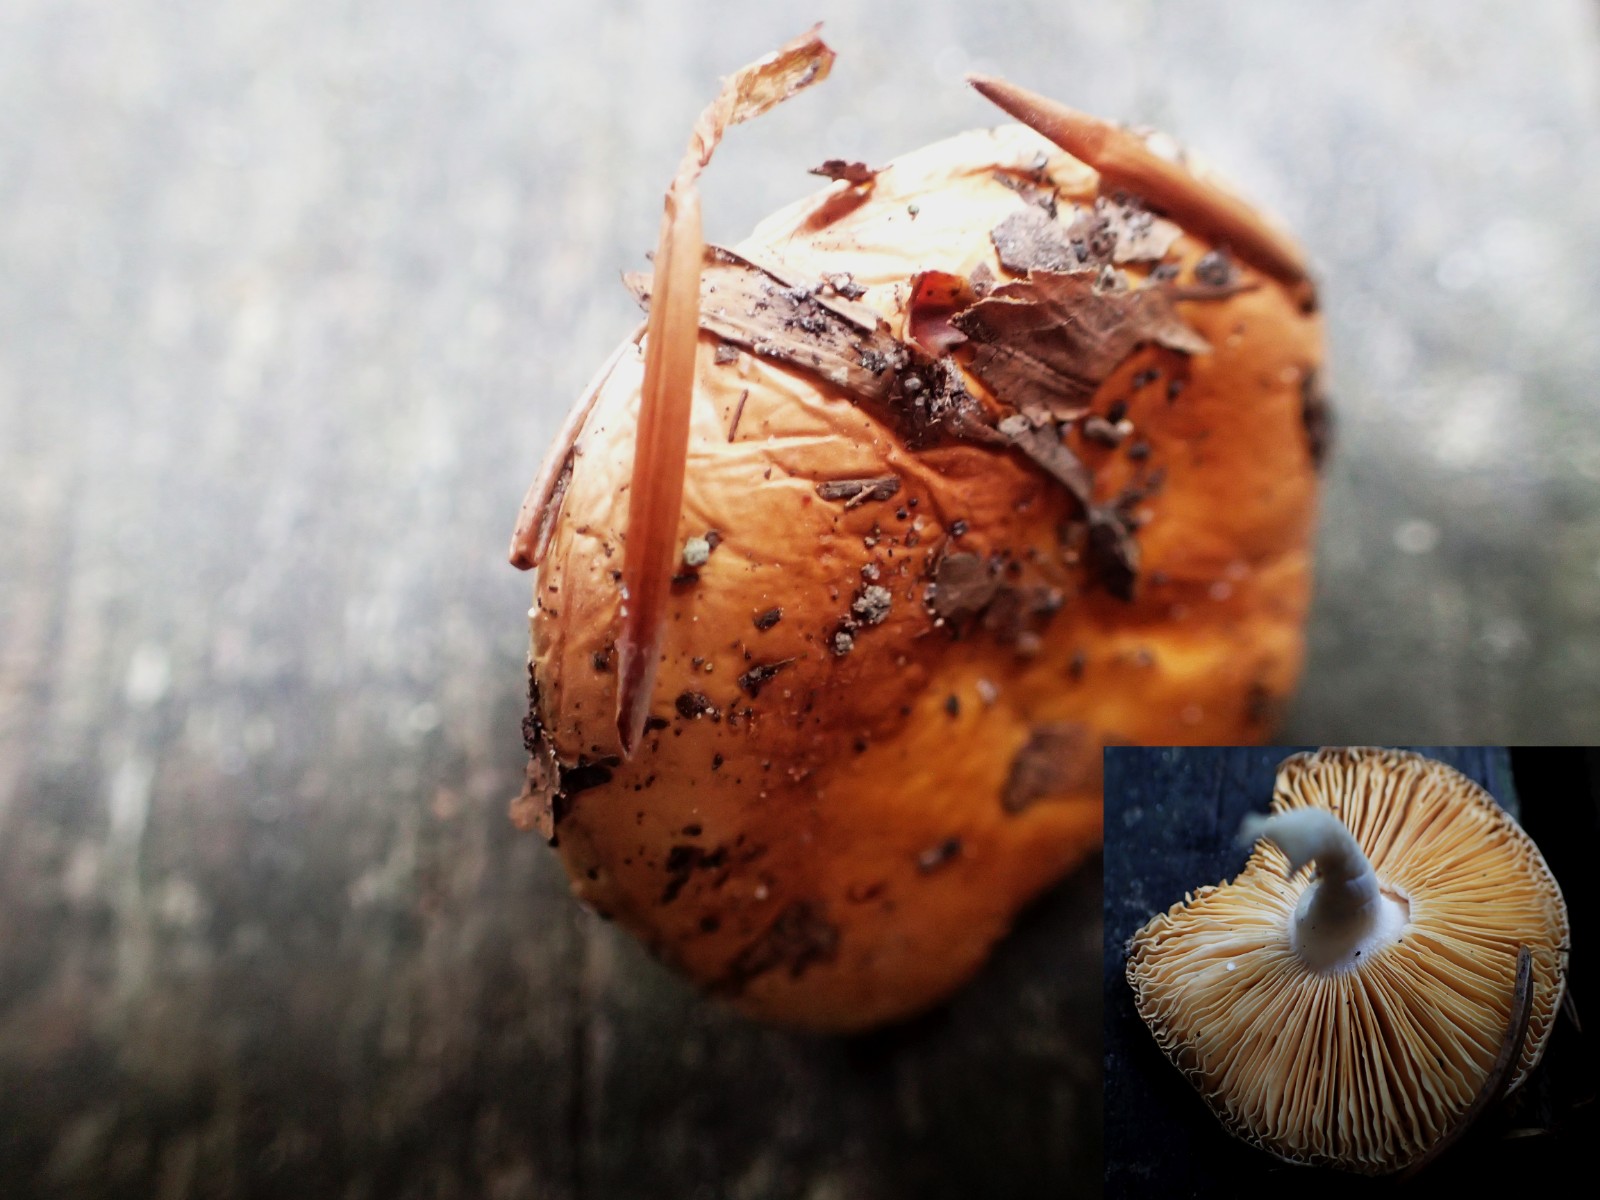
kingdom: Fungi
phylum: Basidiomycota
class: Agaricomycetes
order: Russulales
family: Russulaceae
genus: Russula
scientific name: Russula risigallina
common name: abrikos-skørhat
